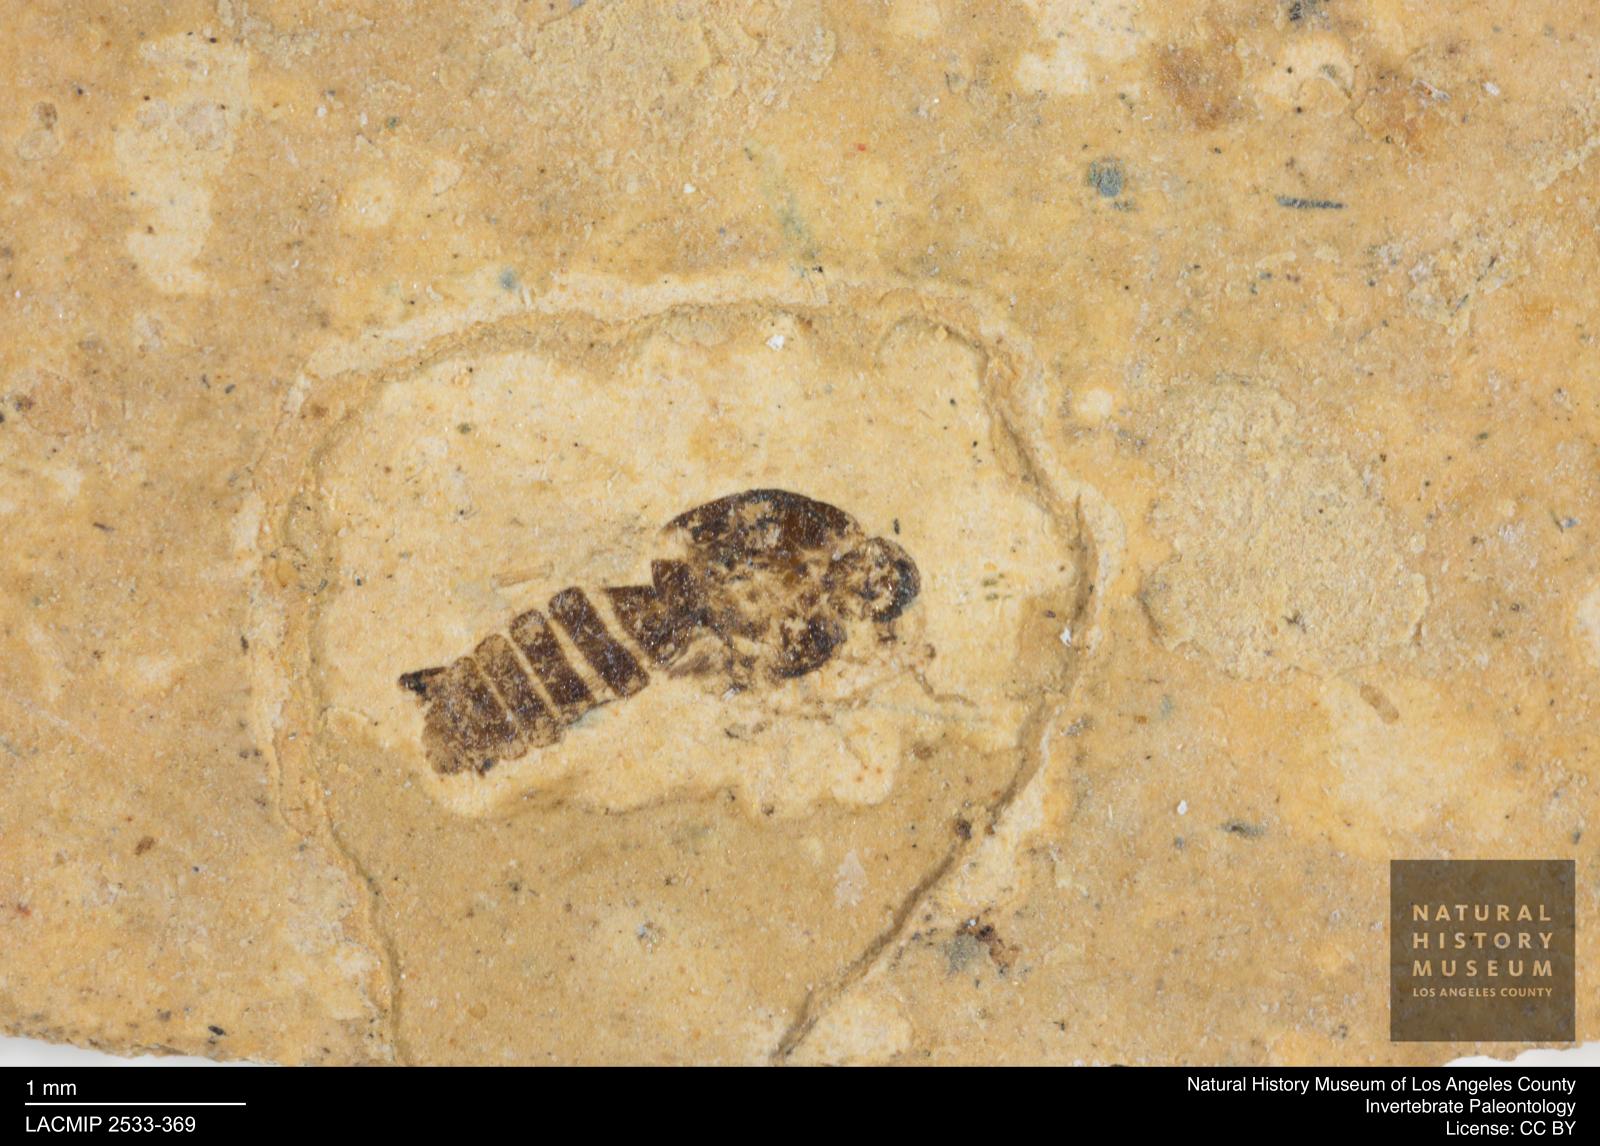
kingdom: Animalia
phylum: Arthropoda
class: Insecta
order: Diptera
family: Ceratopogonidae
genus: Culicoides
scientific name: Culicoides elongatulus
